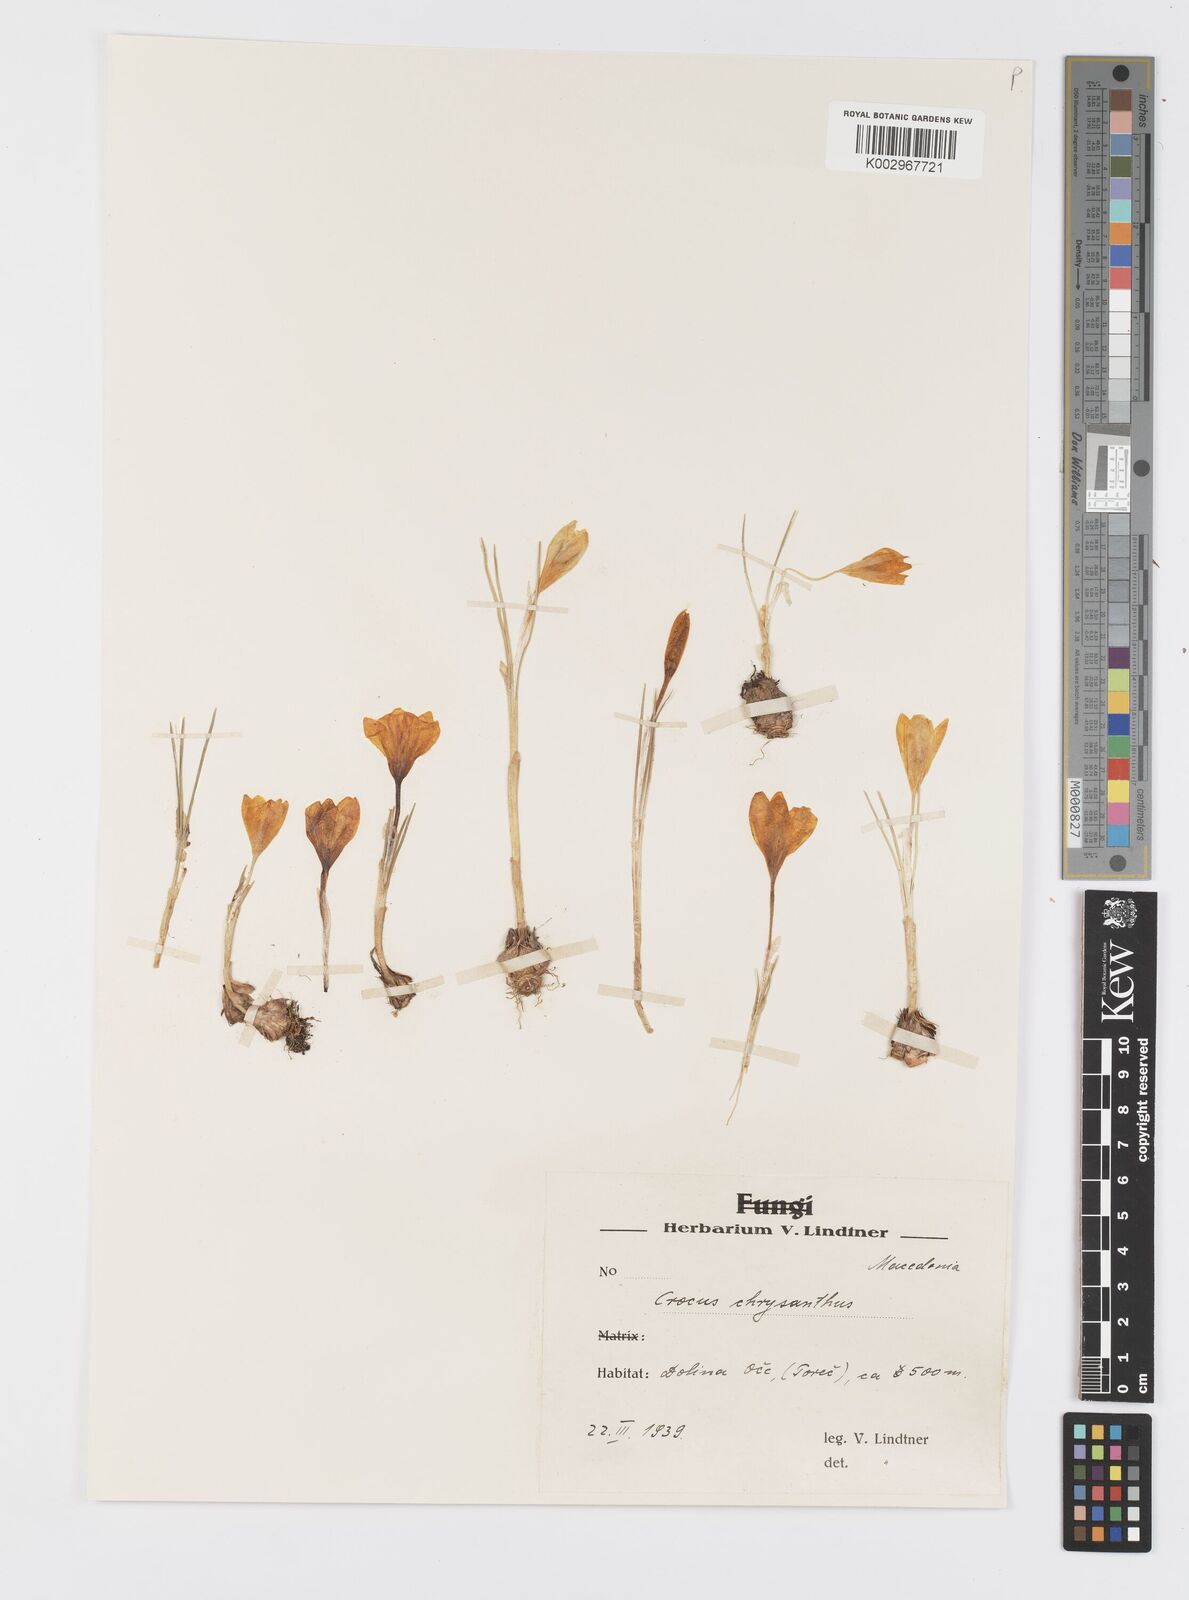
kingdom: Plantae
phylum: Tracheophyta
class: Liliopsida
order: Asparagales
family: Iridaceae
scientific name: Iridaceae
